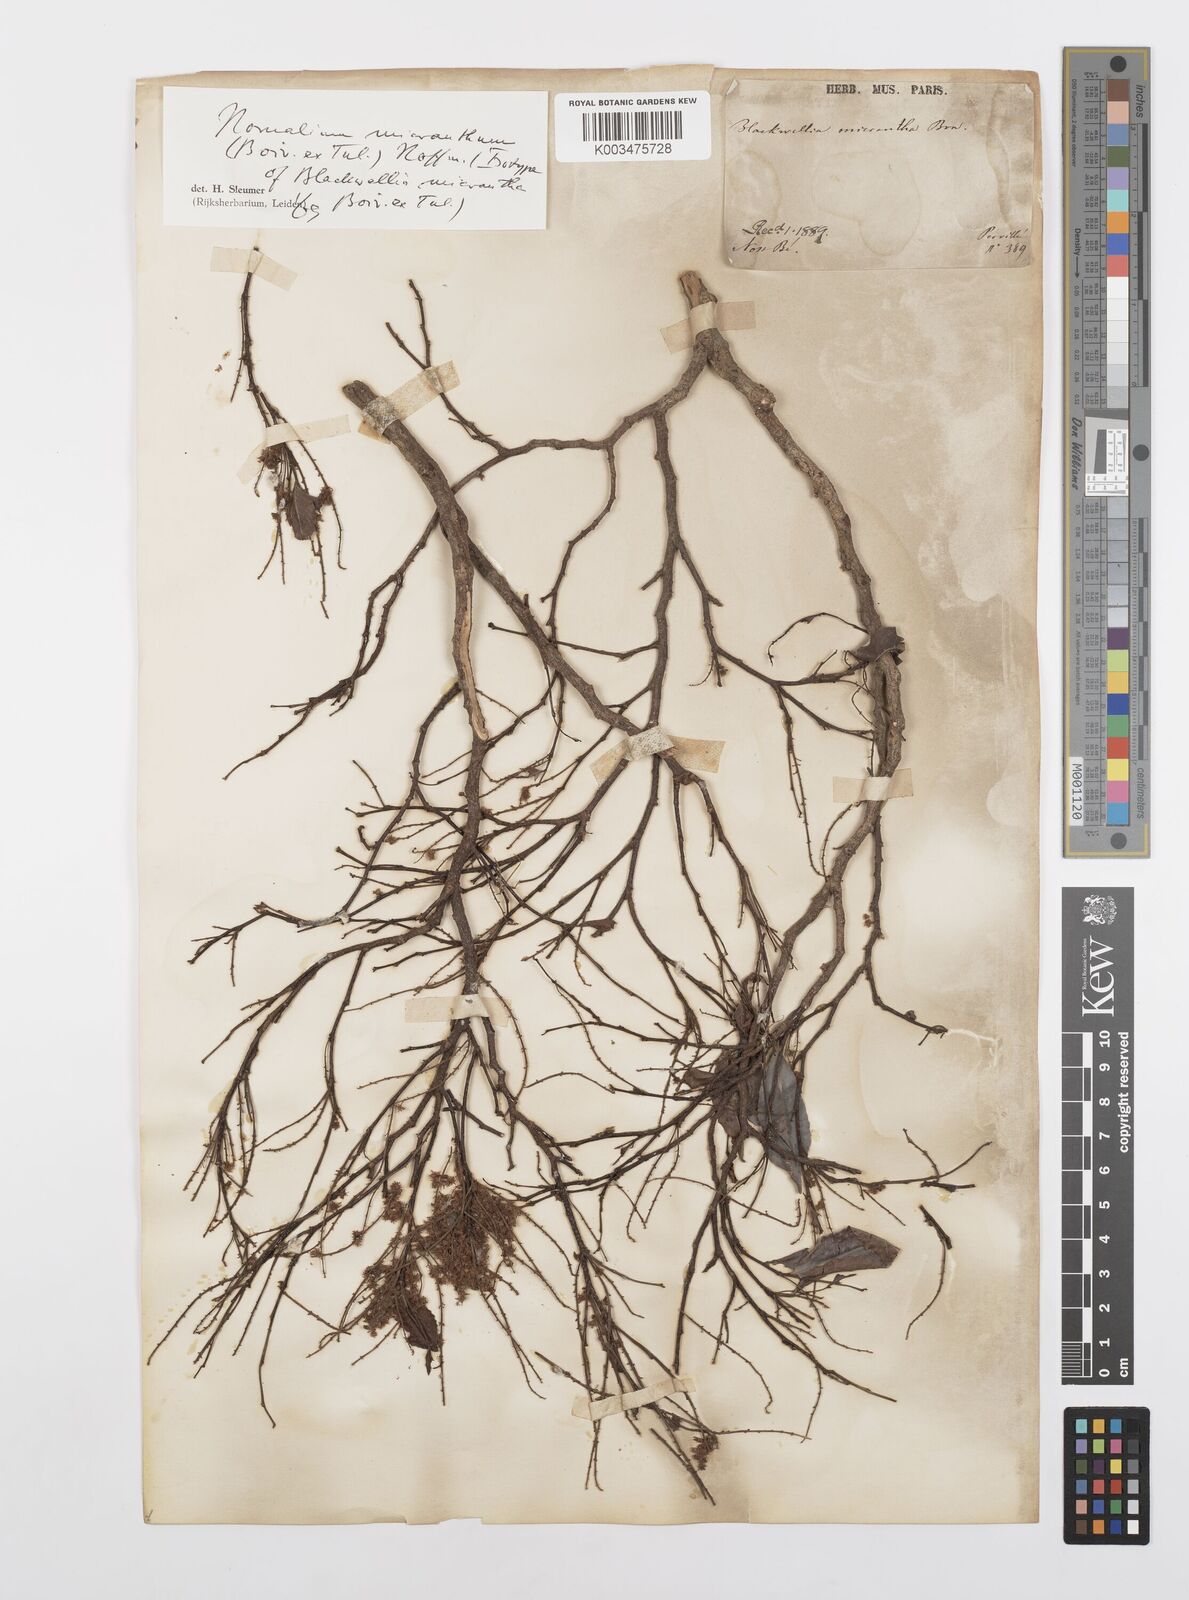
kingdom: Plantae
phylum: Tracheophyta
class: Magnoliopsida
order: Malpighiales
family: Salicaceae
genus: Homalium
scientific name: Homalium micranthum
